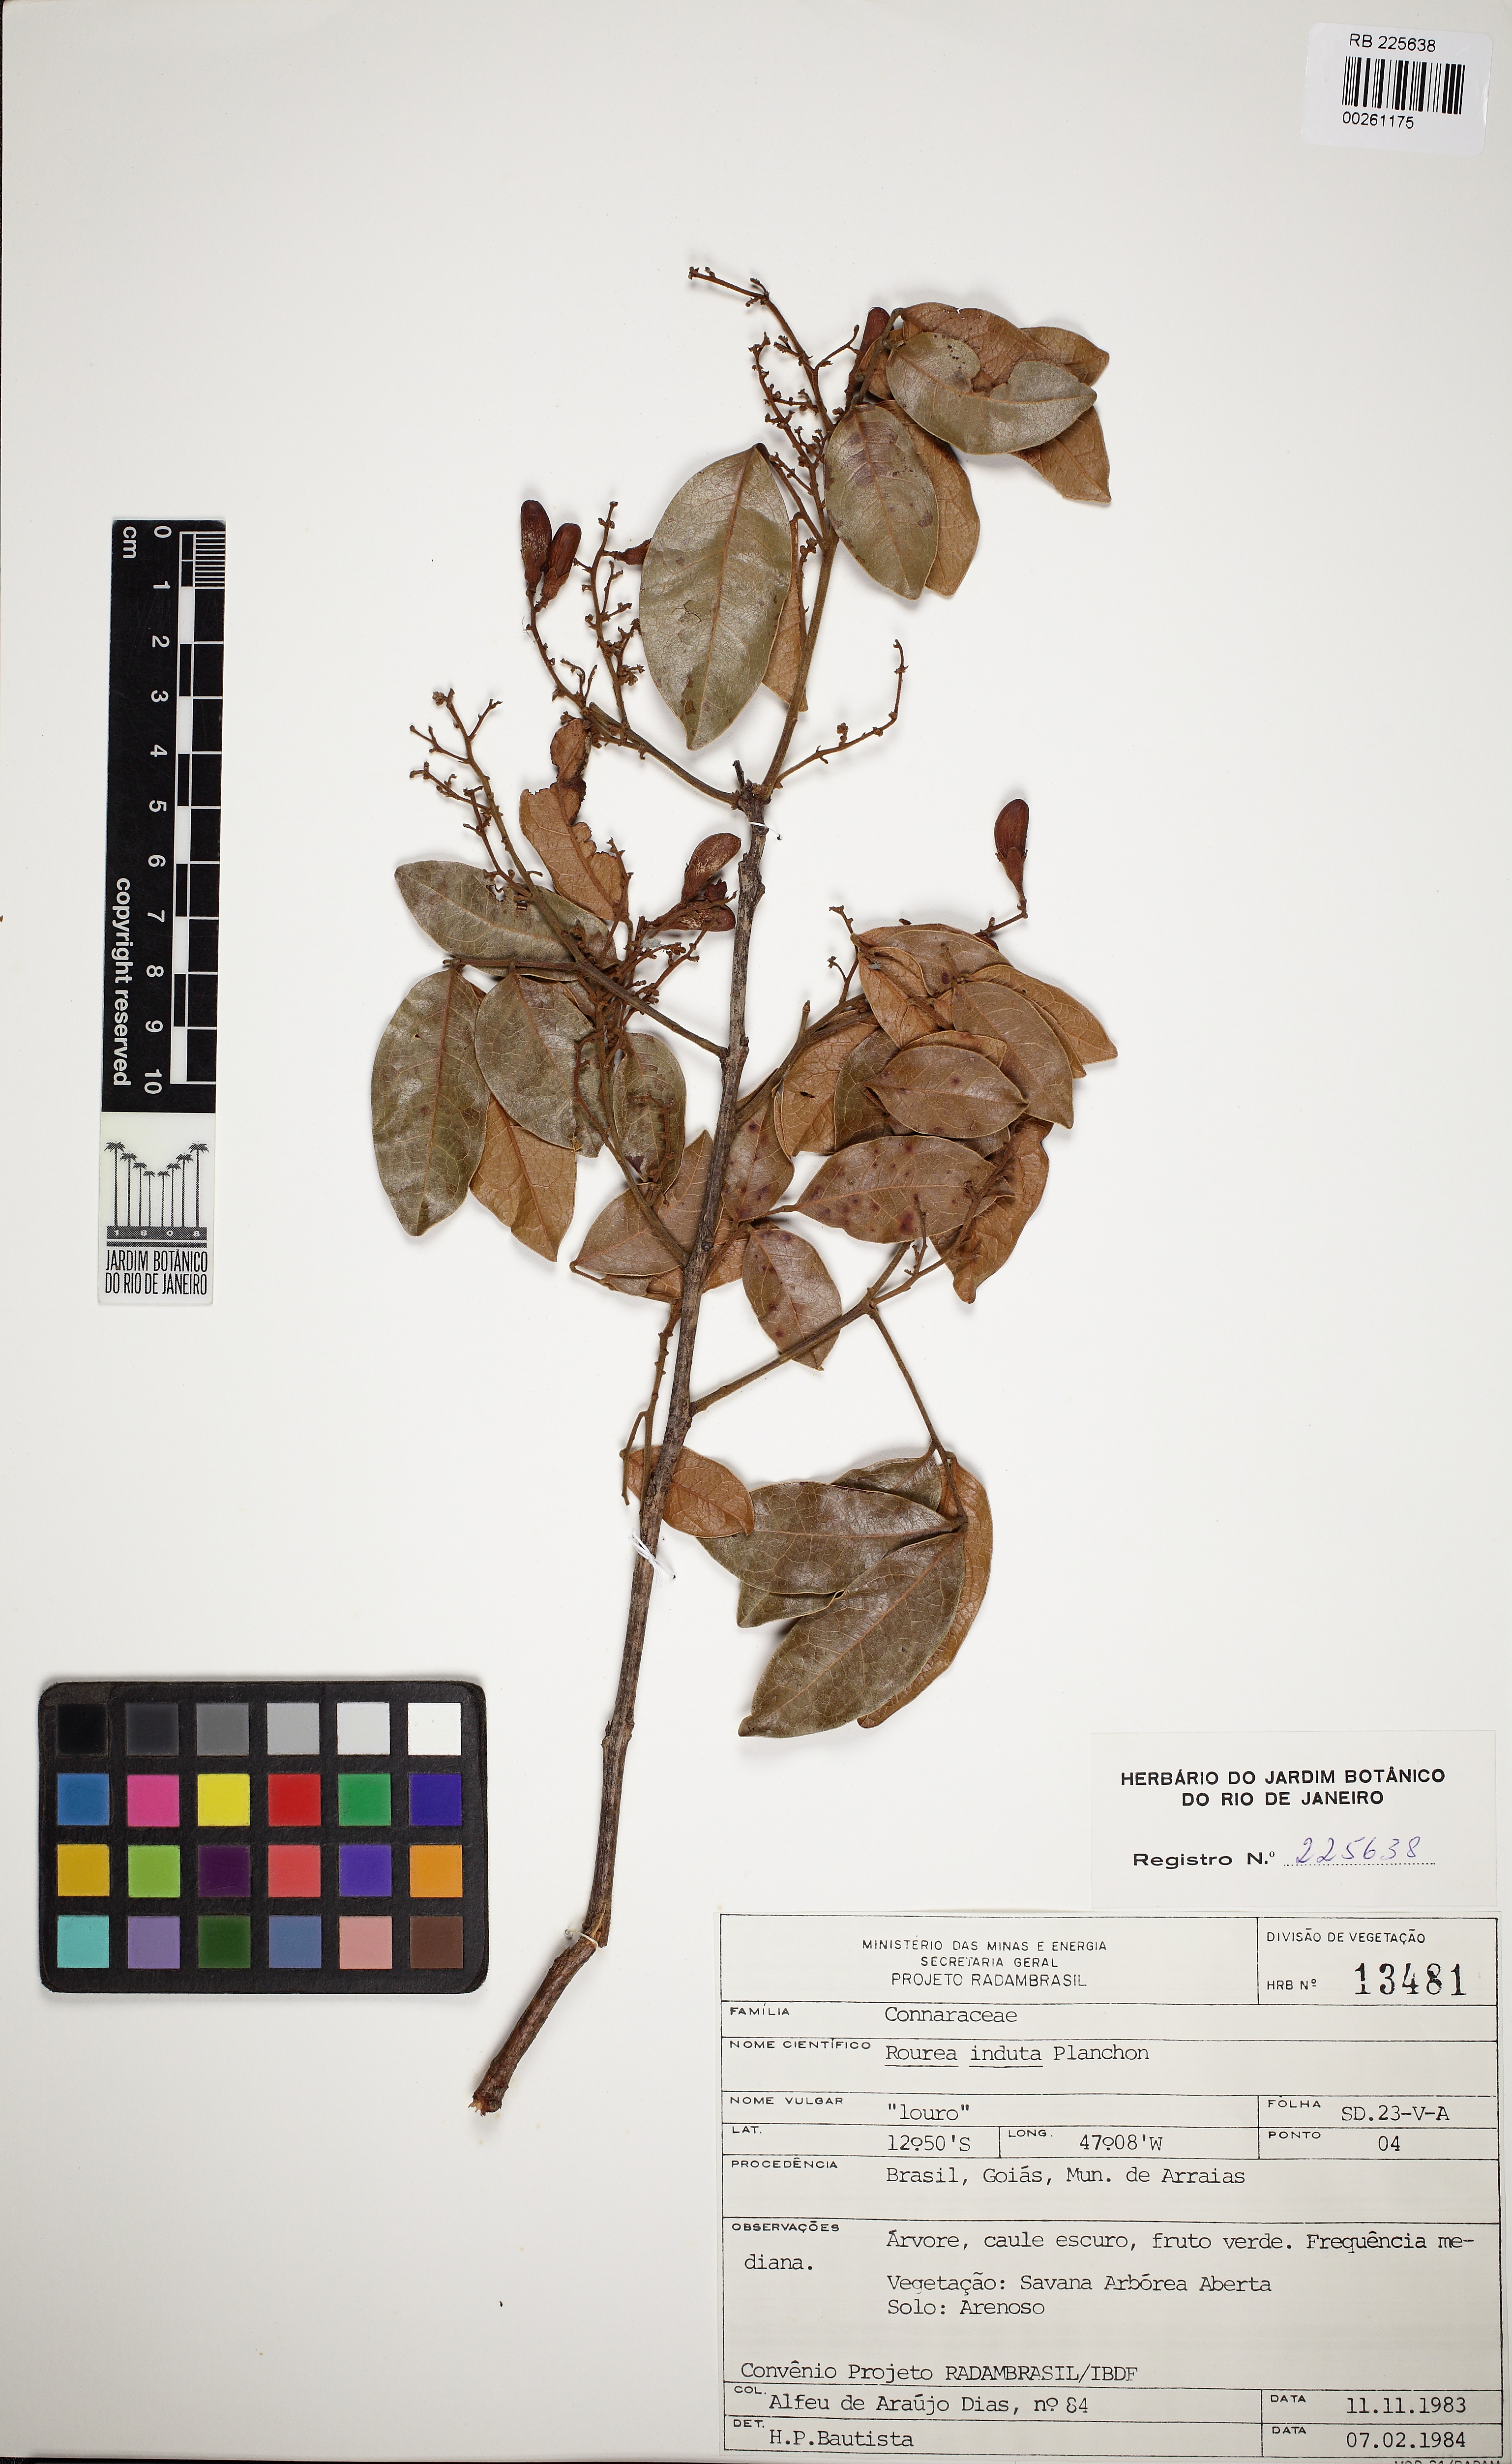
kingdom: Plantae
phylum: Tracheophyta
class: Magnoliopsida
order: Oxalidales
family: Connaraceae
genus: Rourea
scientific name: Rourea induta
